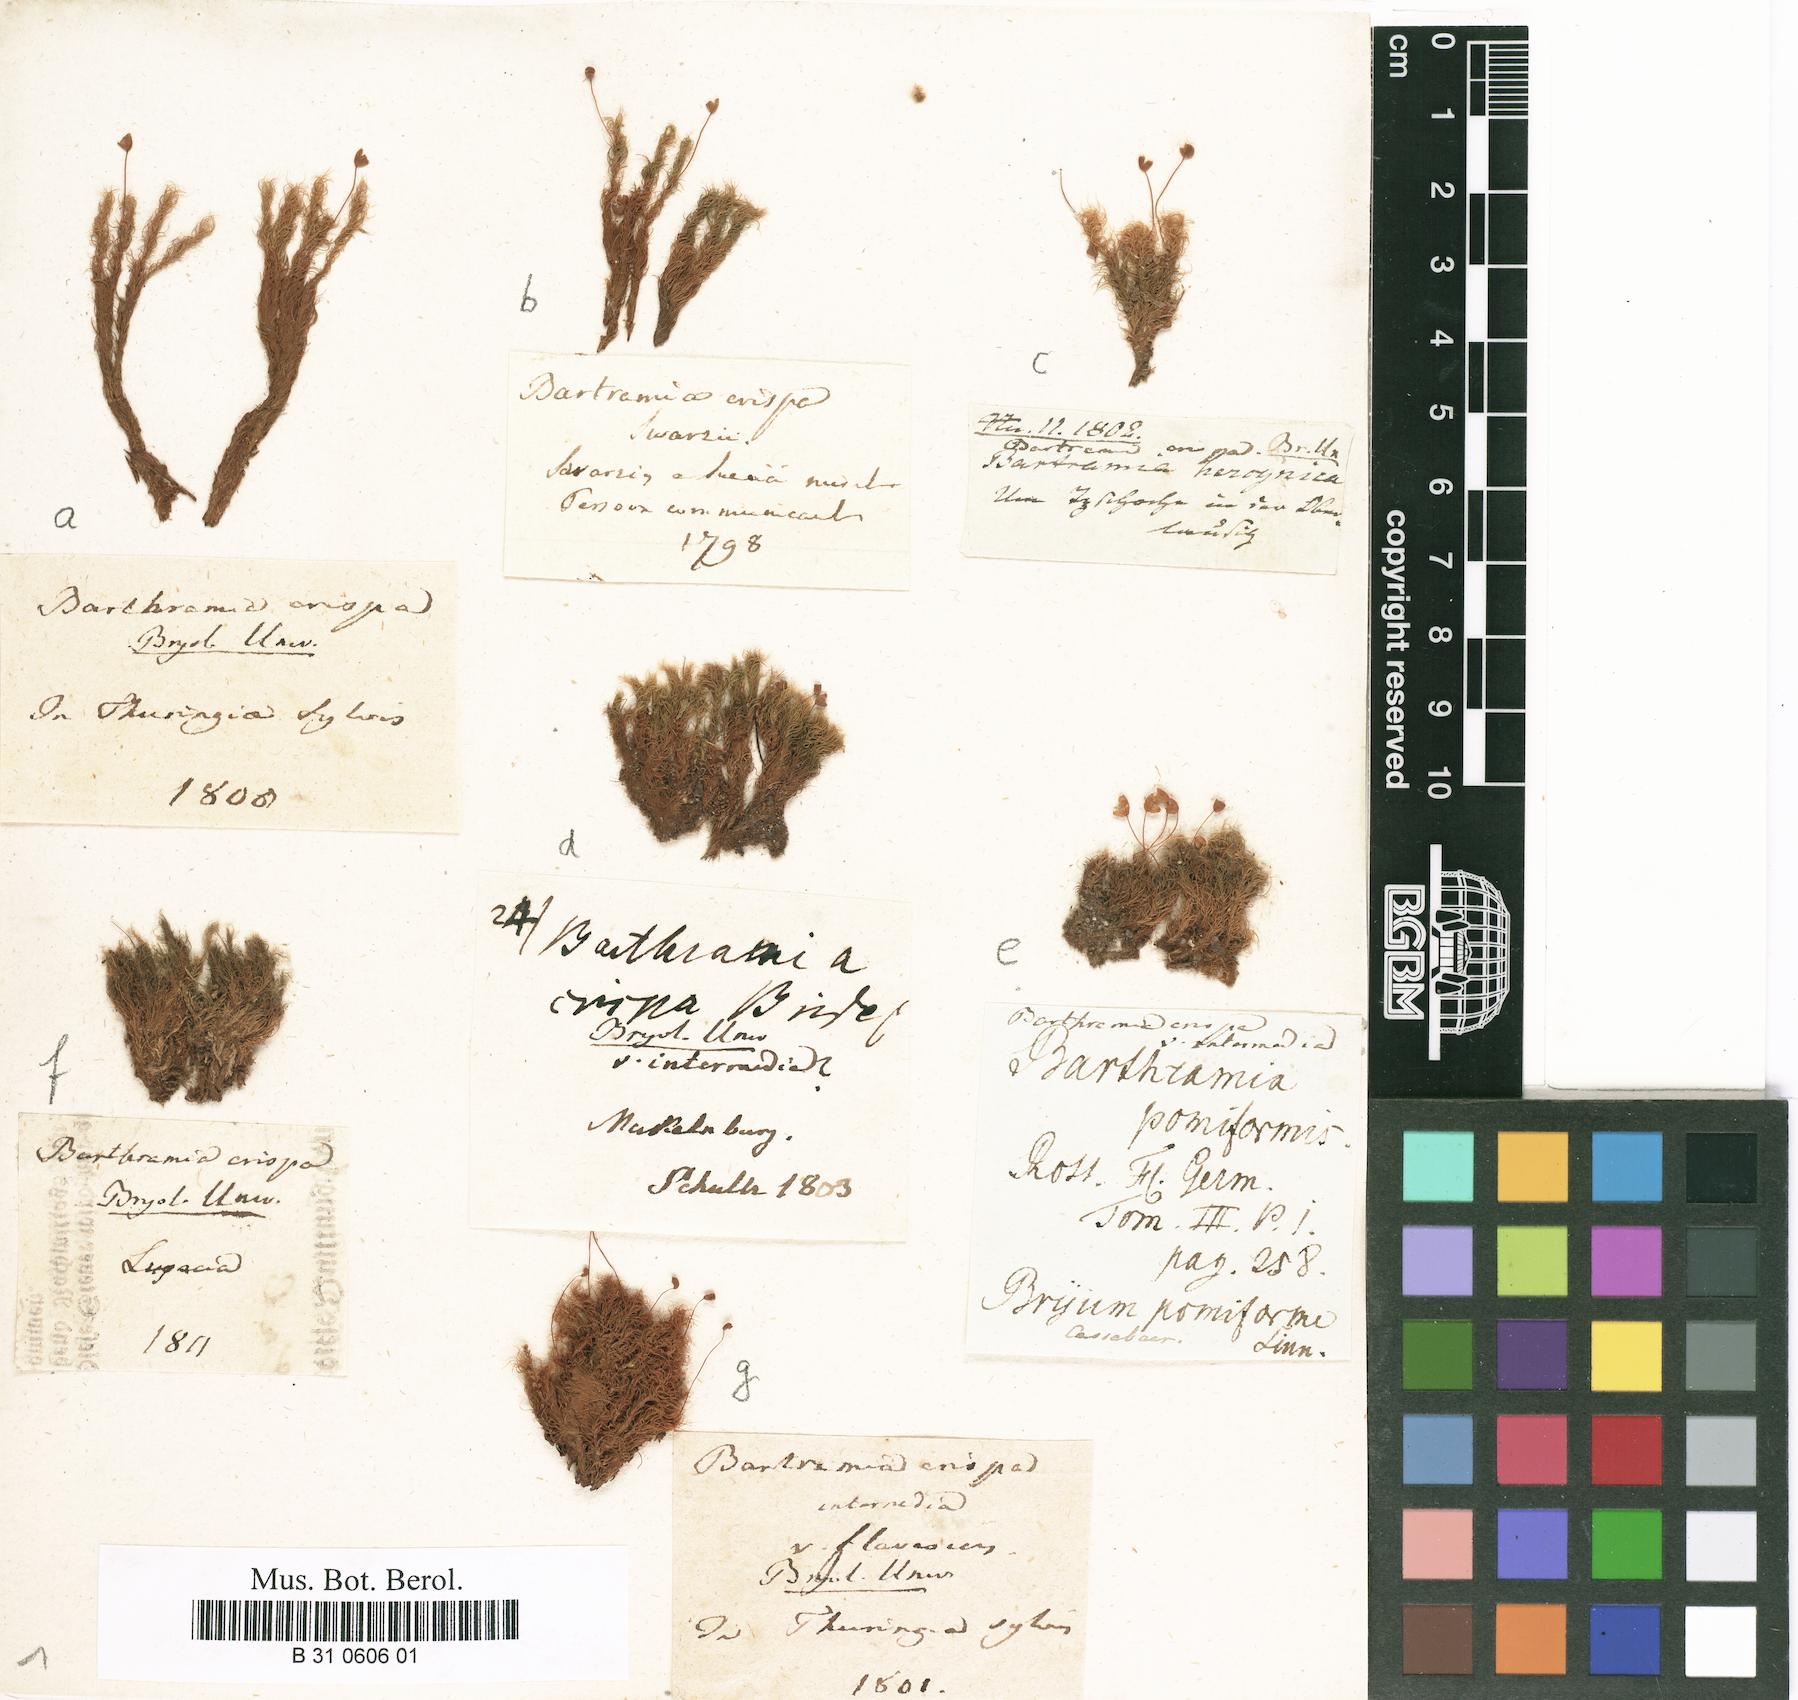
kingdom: Plantae
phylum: Bryophyta
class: Bryopsida
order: Bartramiales
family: Bartramiaceae
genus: Bartramia
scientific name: Bartramia pomiformis
